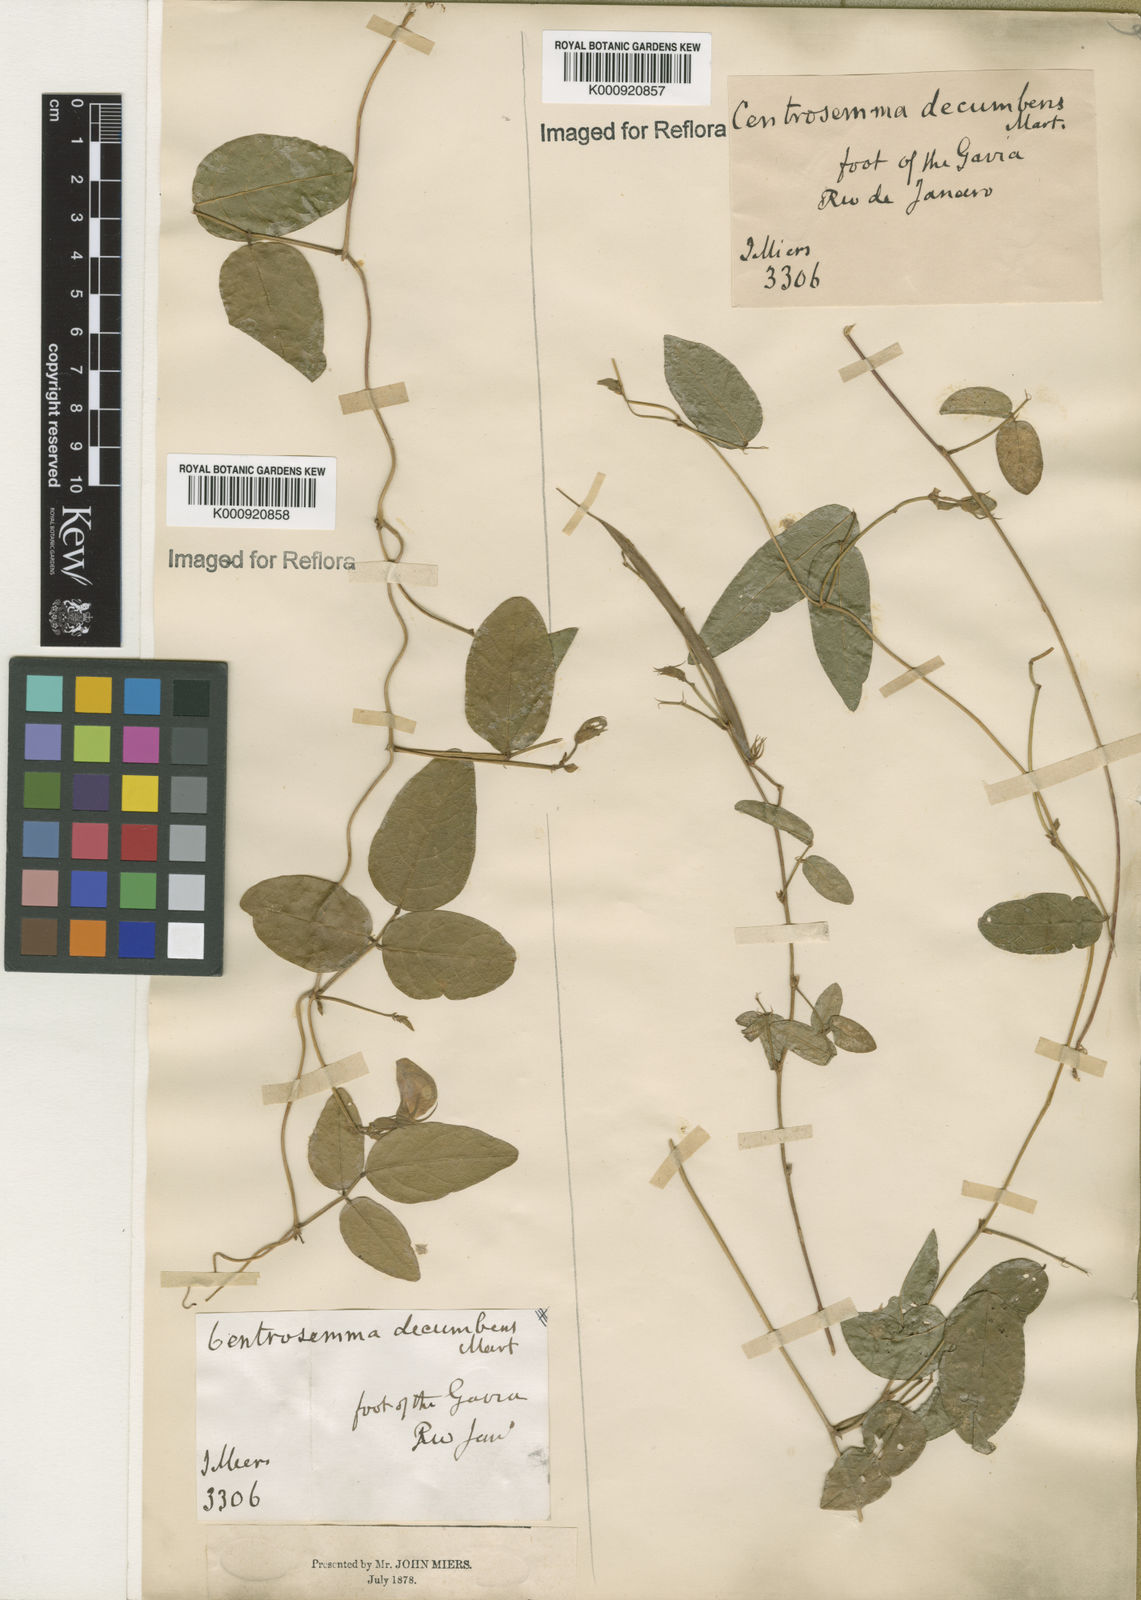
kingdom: Plantae
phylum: Tracheophyta
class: Magnoliopsida
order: Fabales
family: Fabaceae
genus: Centrosema
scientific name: Centrosema virginianum
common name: Butterfly-pea
